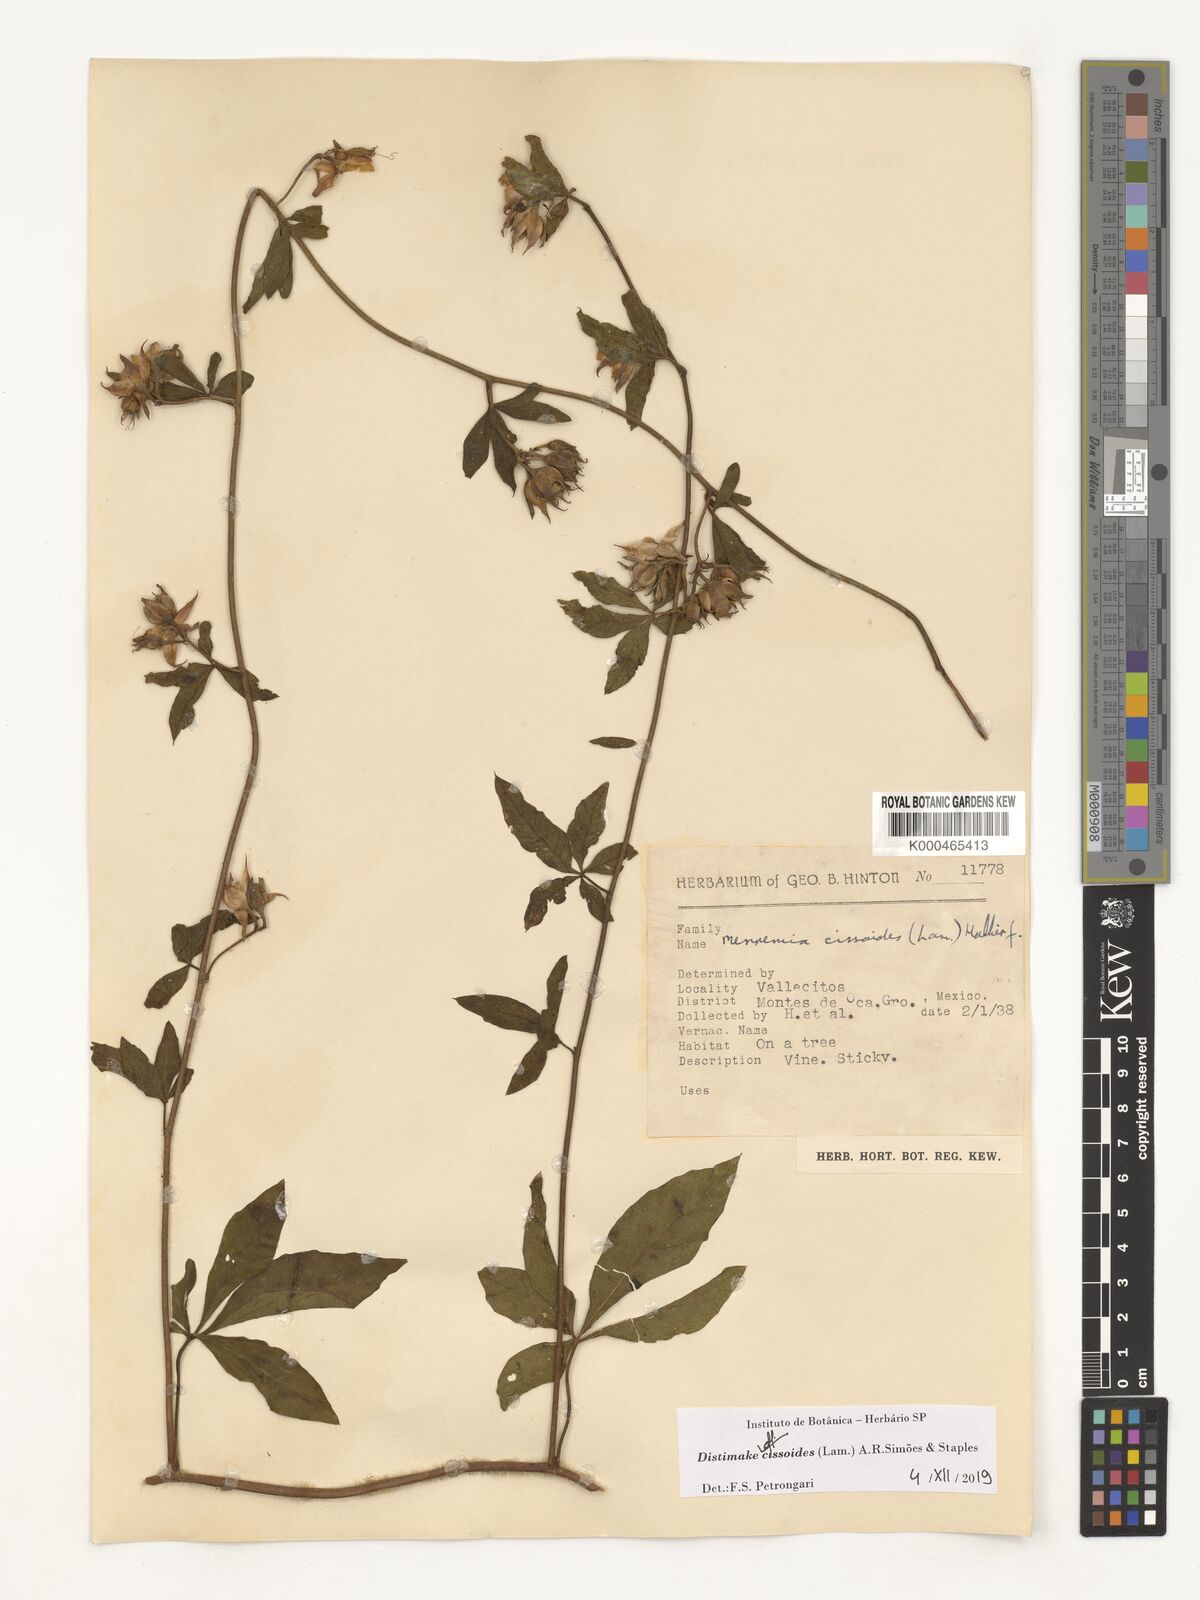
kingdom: Plantae
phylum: Tracheophyta
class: Magnoliopsida
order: Solanales
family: Convolvulaceae
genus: Distimake
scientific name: Distimake cissoides
